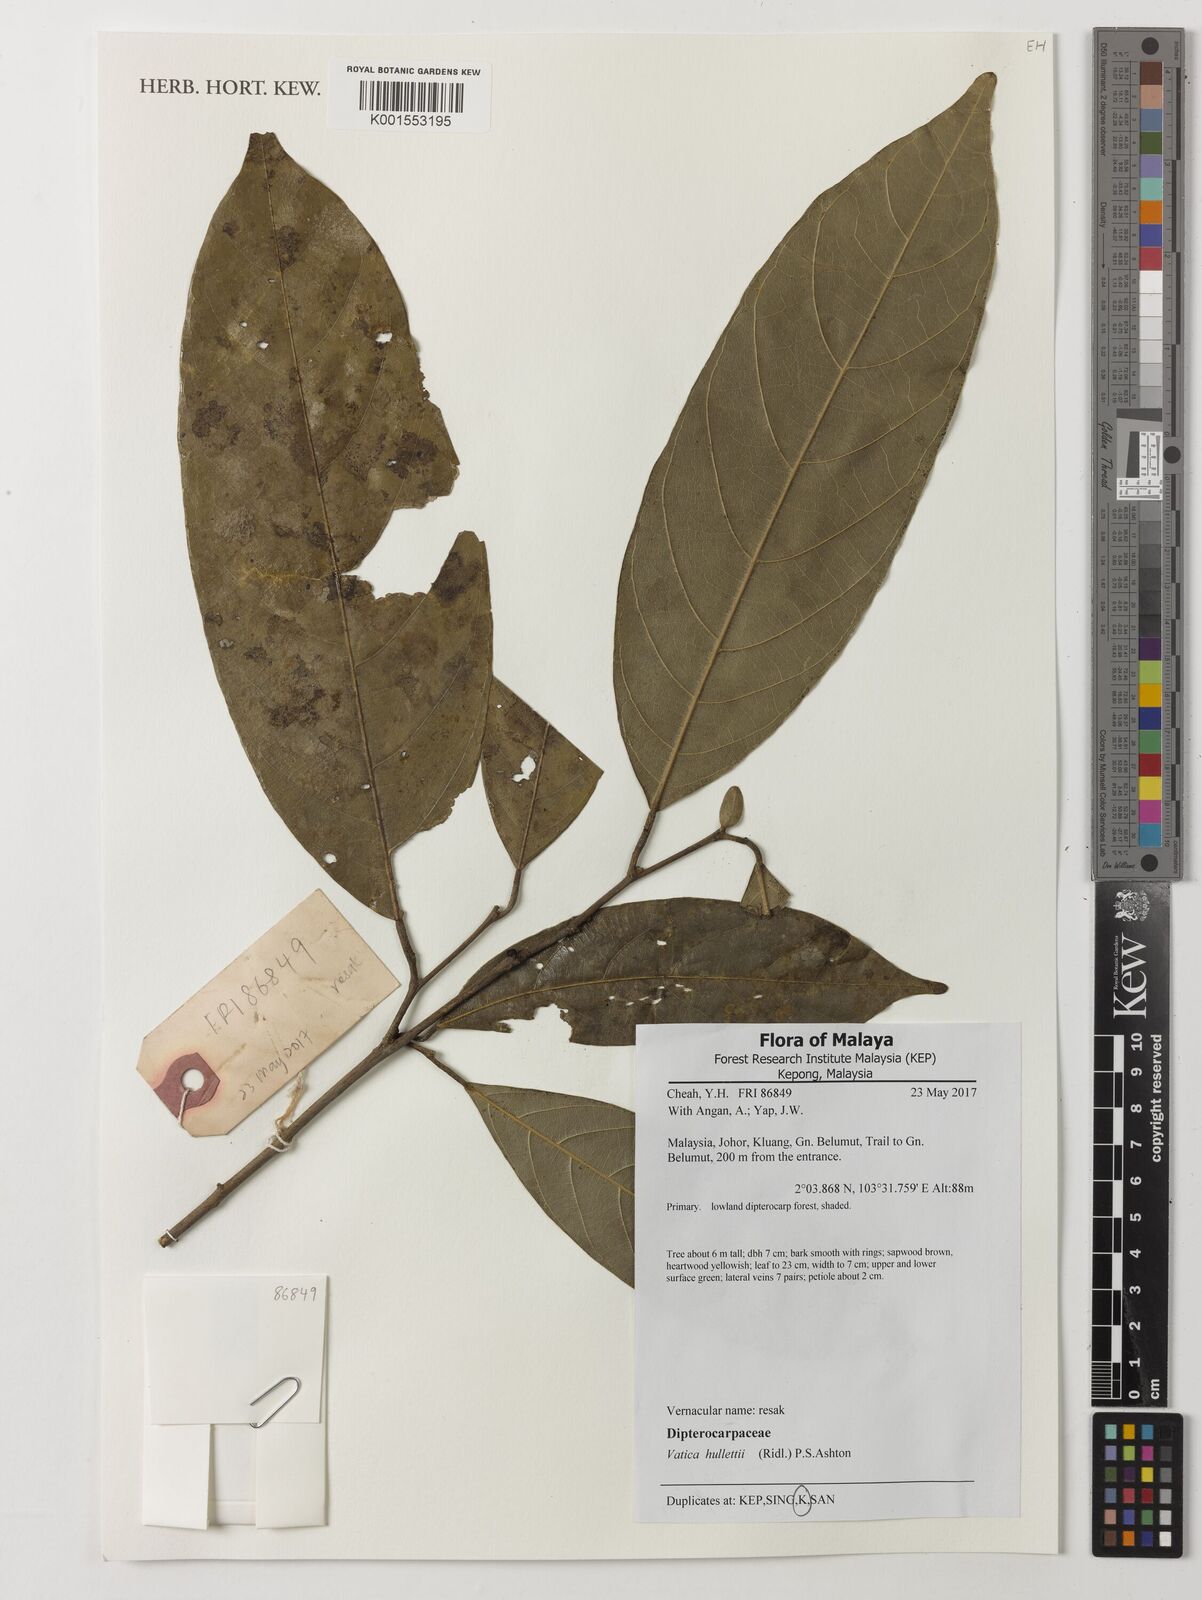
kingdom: Plantae
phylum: Tracheophyta
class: Magnoliopsida
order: Malvales
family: Dipterocarpaceae
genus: Vateria
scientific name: Vateria
